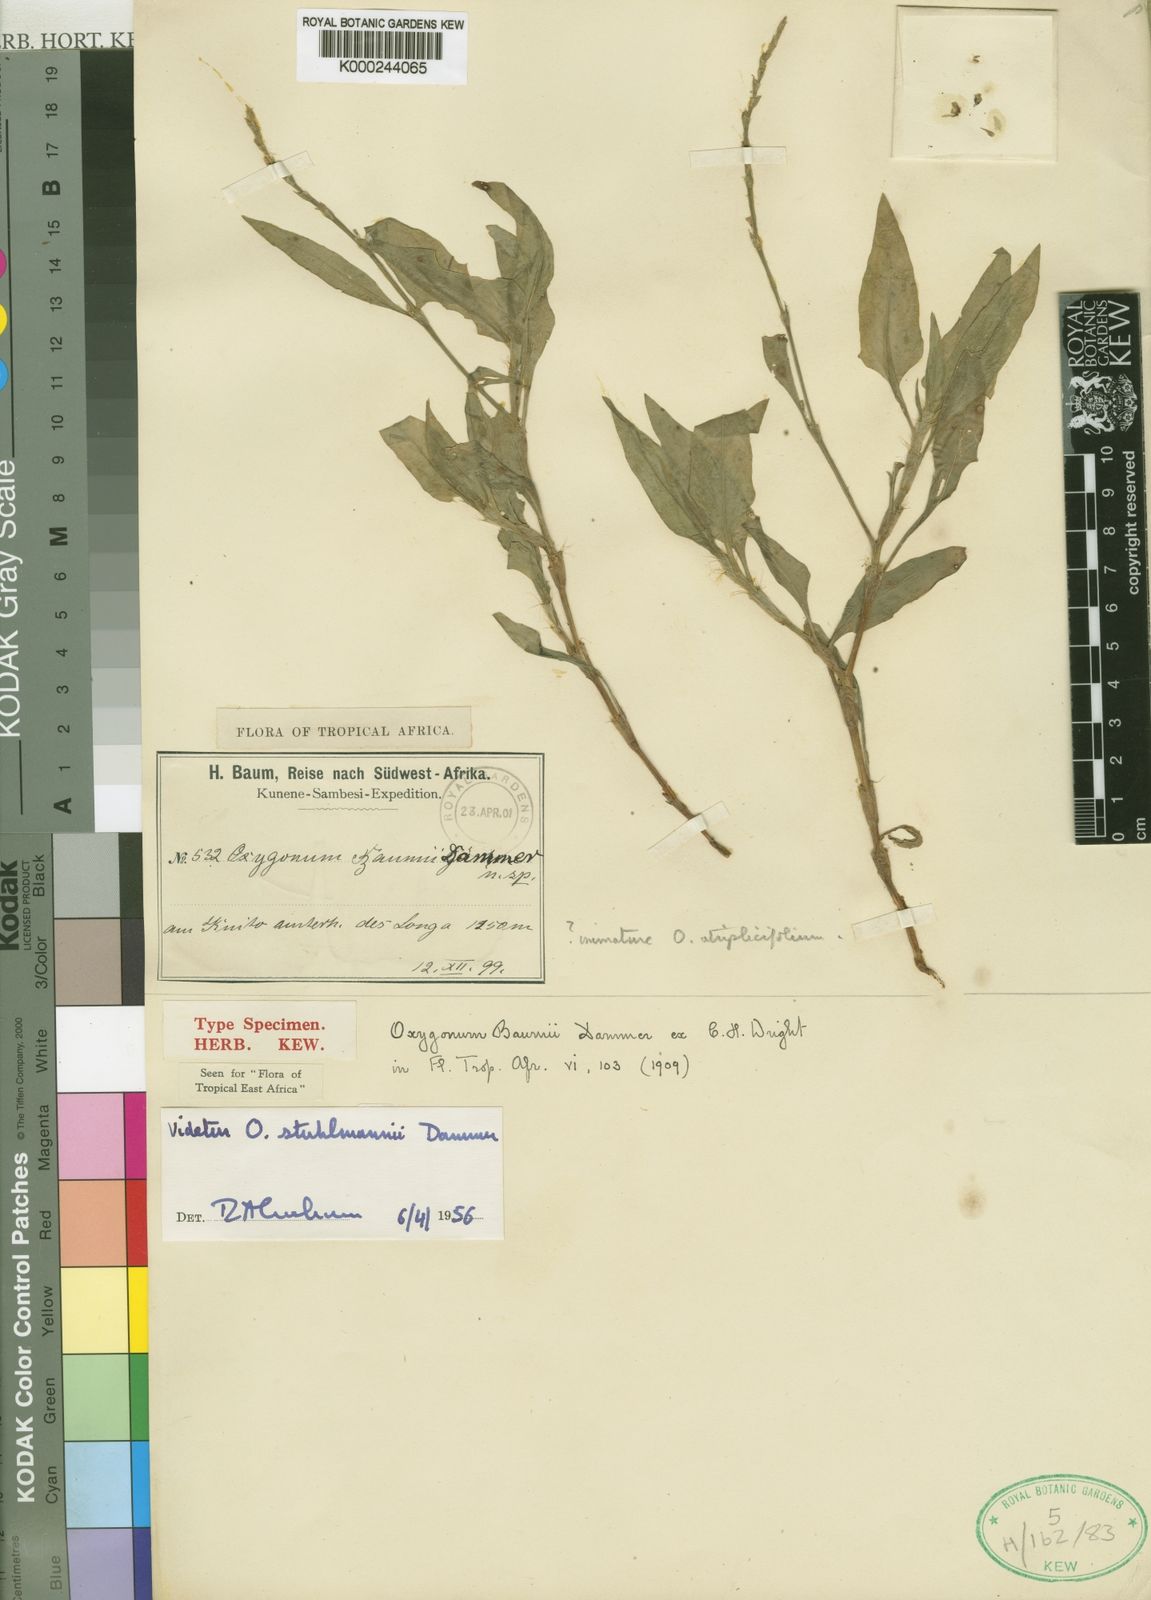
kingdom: Plantae
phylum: Tracheophyta
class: Magnoliopsida
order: Caryophyllales
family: Polygonaceae
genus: Oxygonum
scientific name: Oxygonum stuhlmannii
